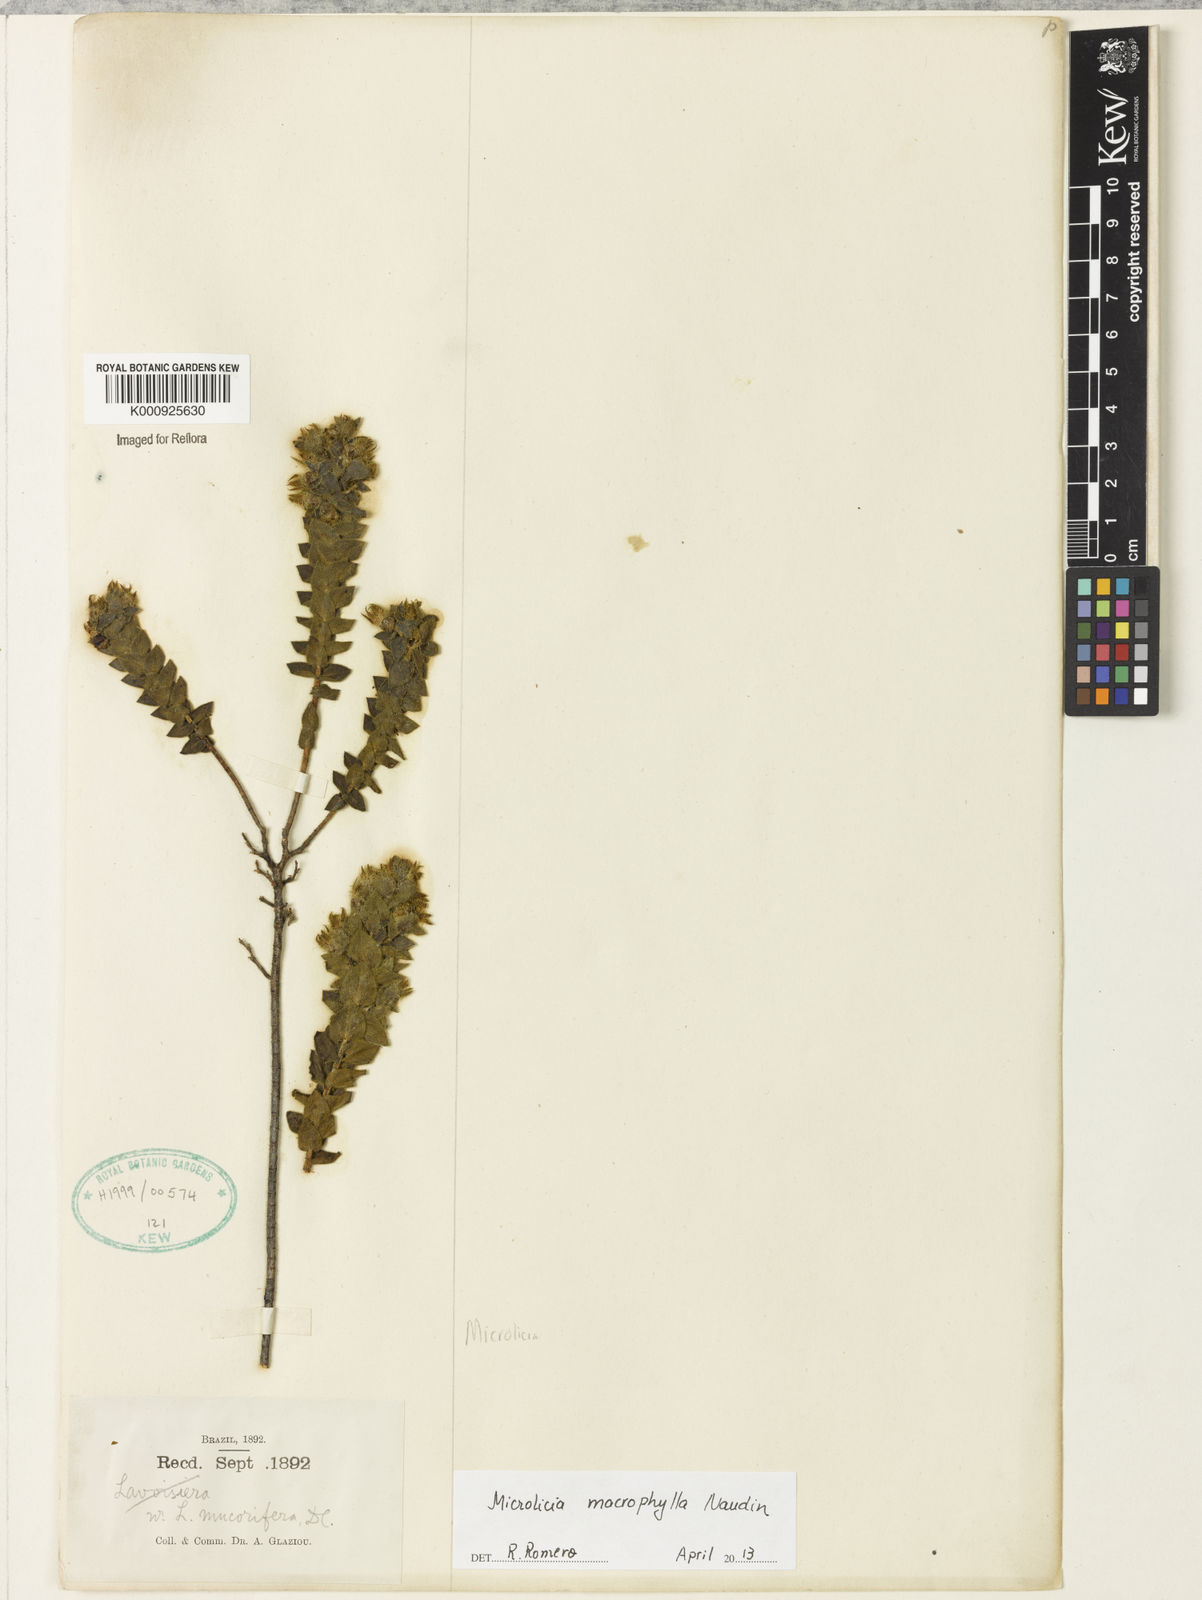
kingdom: Plantae
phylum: Tracheophyta
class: Magnoliopsida
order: Myrtales
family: Melastomataceae
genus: Microlicia
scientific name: Microlicia macrophylla
